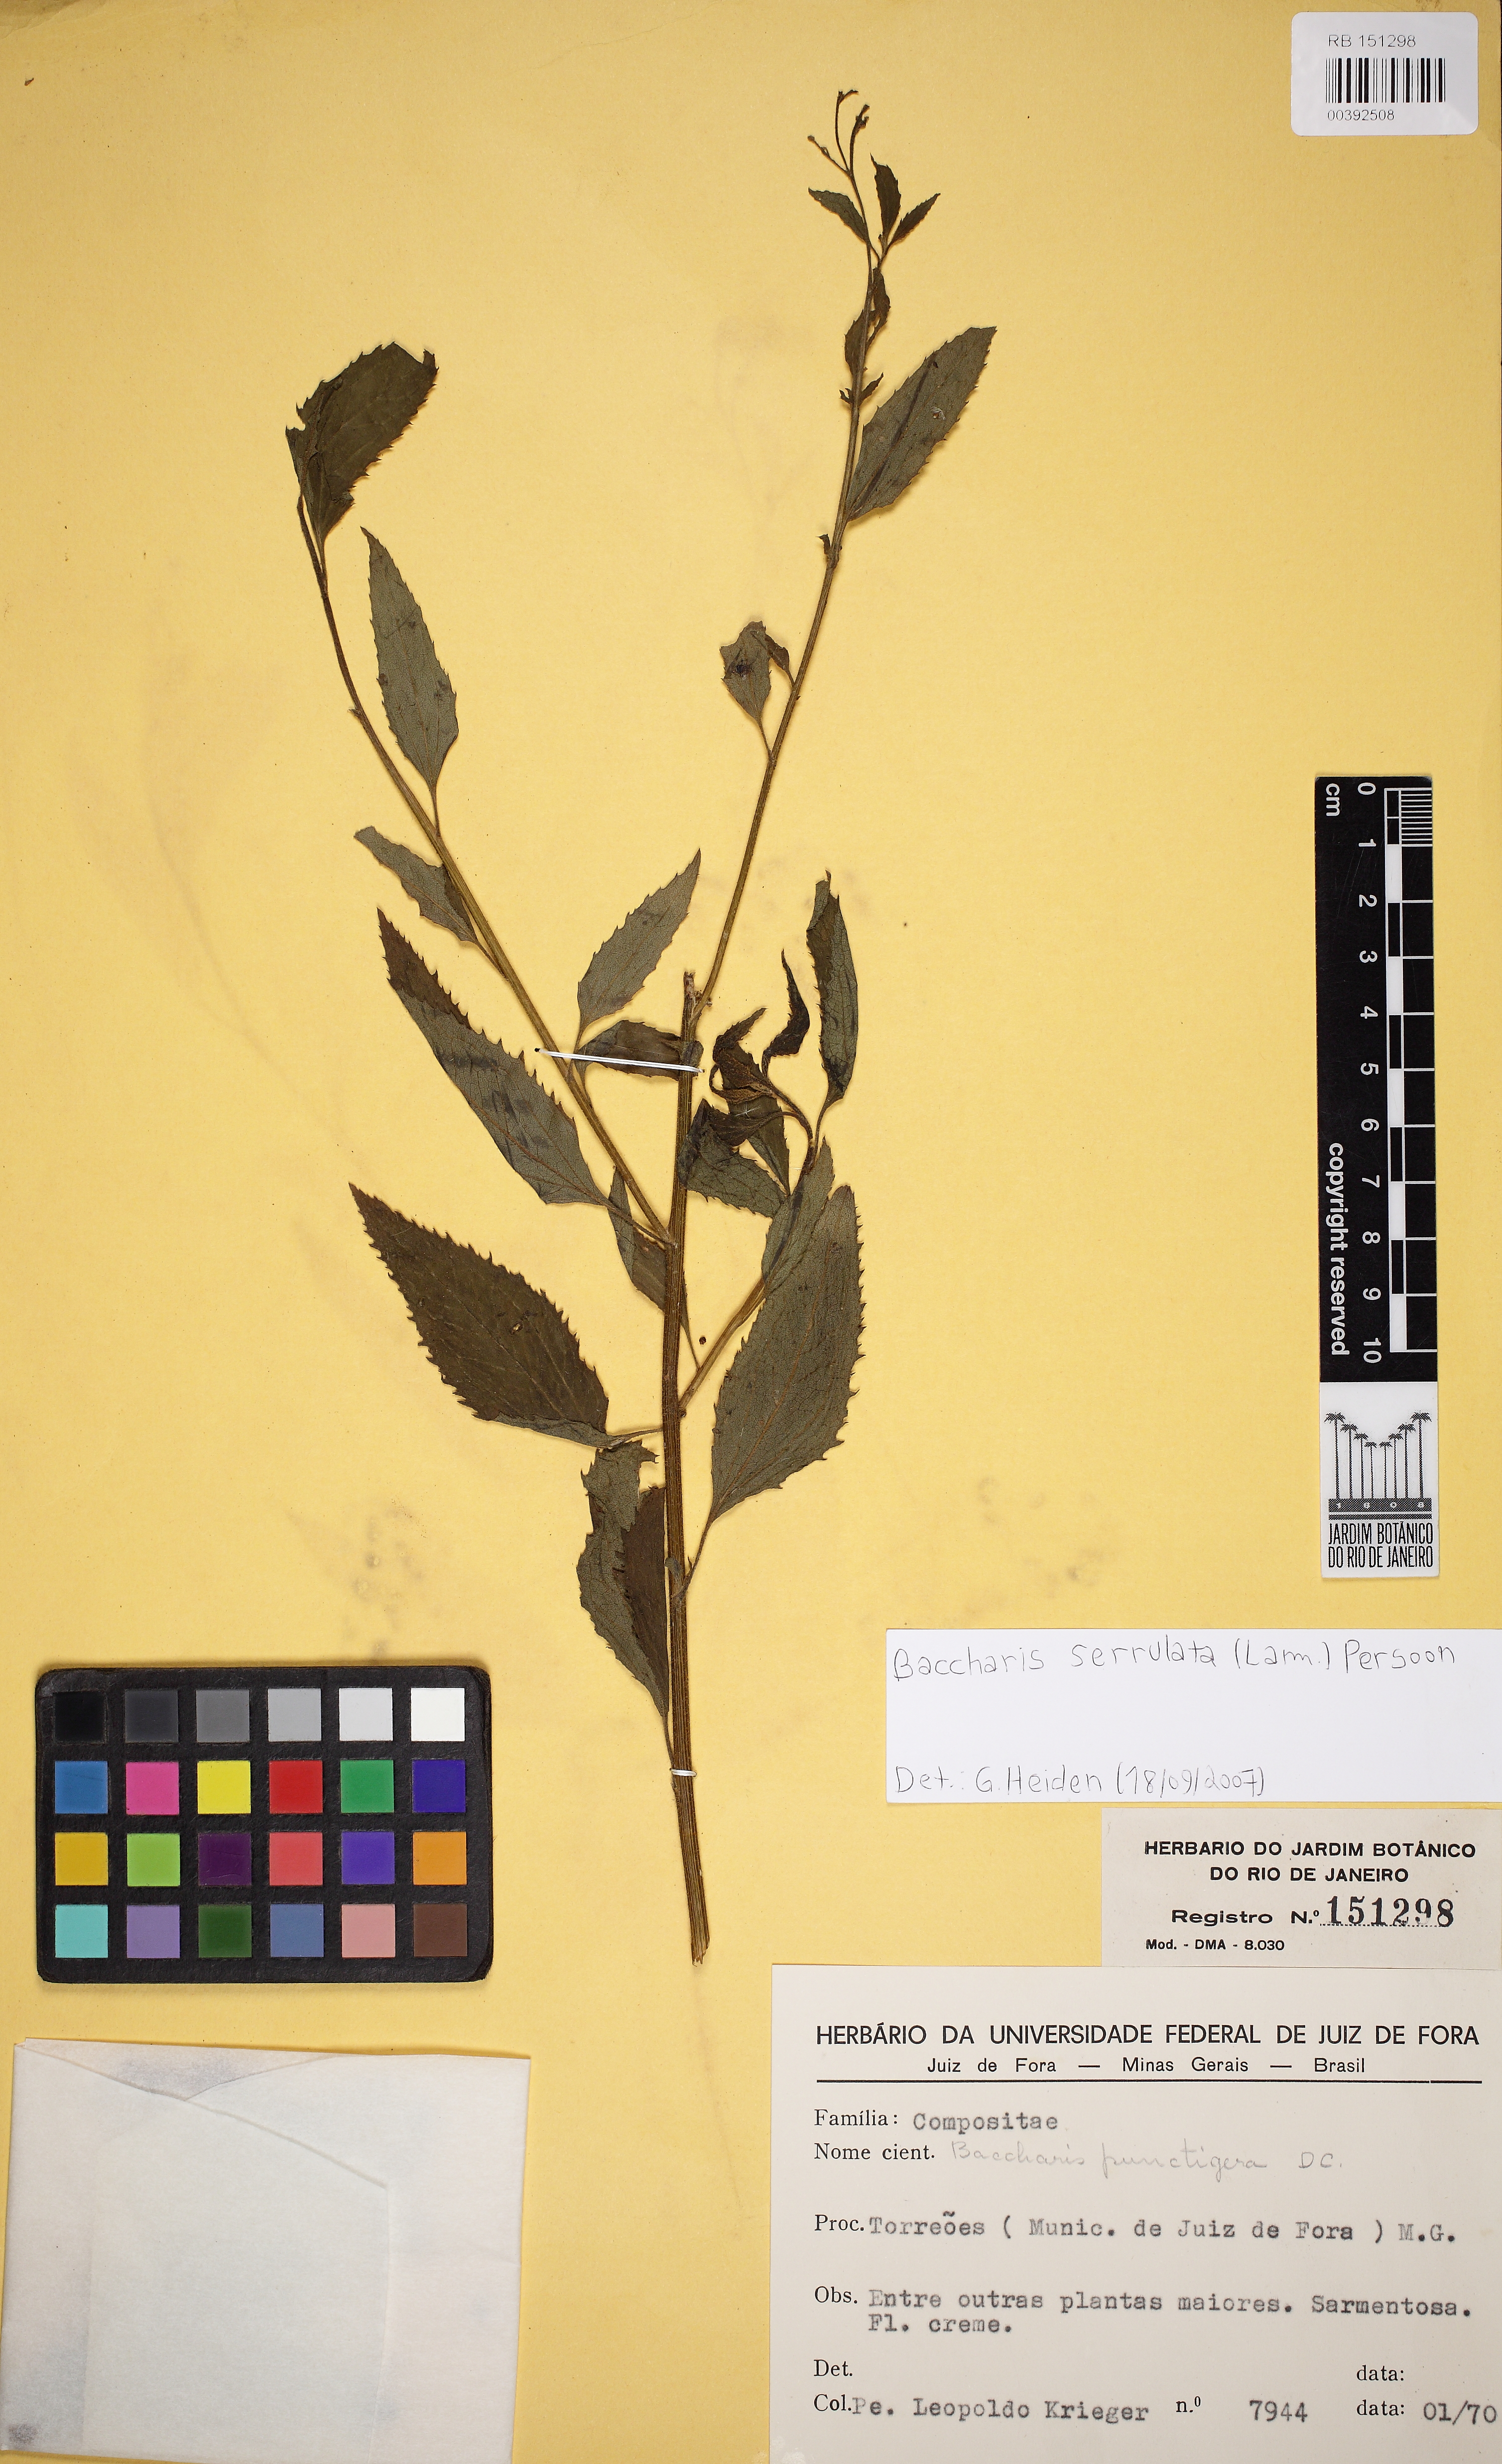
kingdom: Plantae
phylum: Tracheophyta
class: Magnoliopsida
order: Asterales
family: Asteraceae
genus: Baccharis
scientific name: Baccharis serrulata
